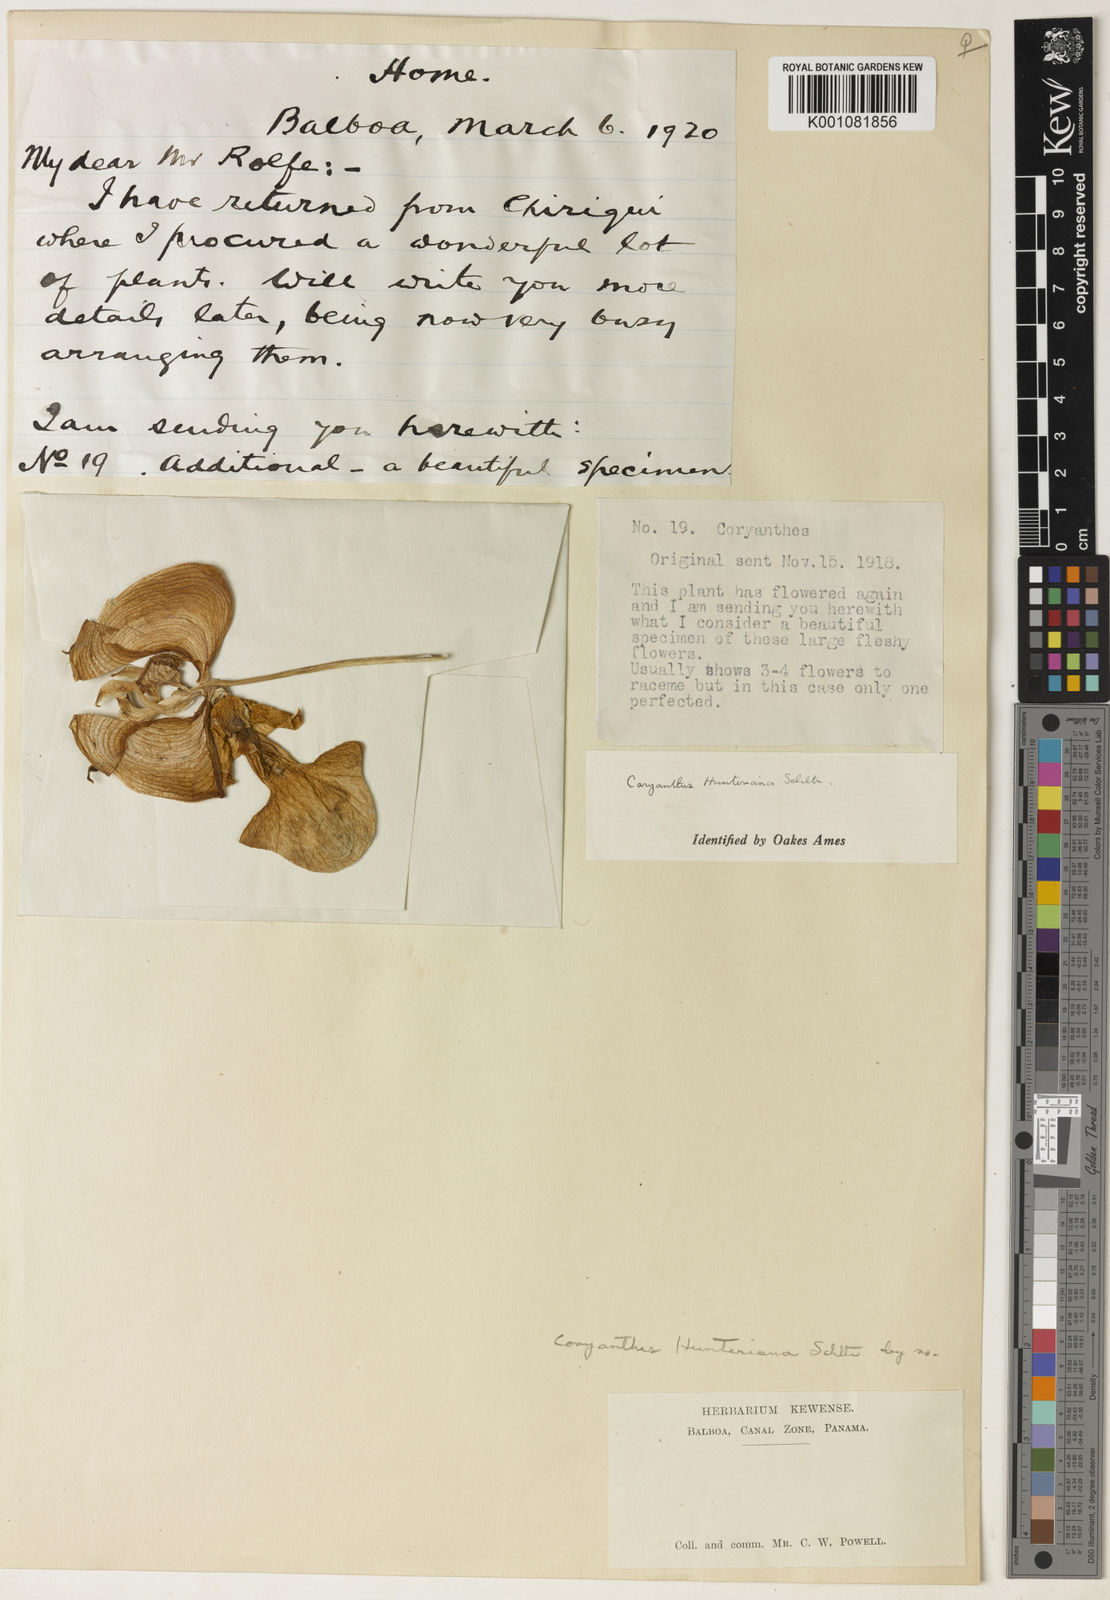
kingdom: Plantae
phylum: Tracheophyta
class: Liliopsida
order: Asparagales
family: Orchidaceae
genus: Coryanthes
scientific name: Coryanthes hunteriana
